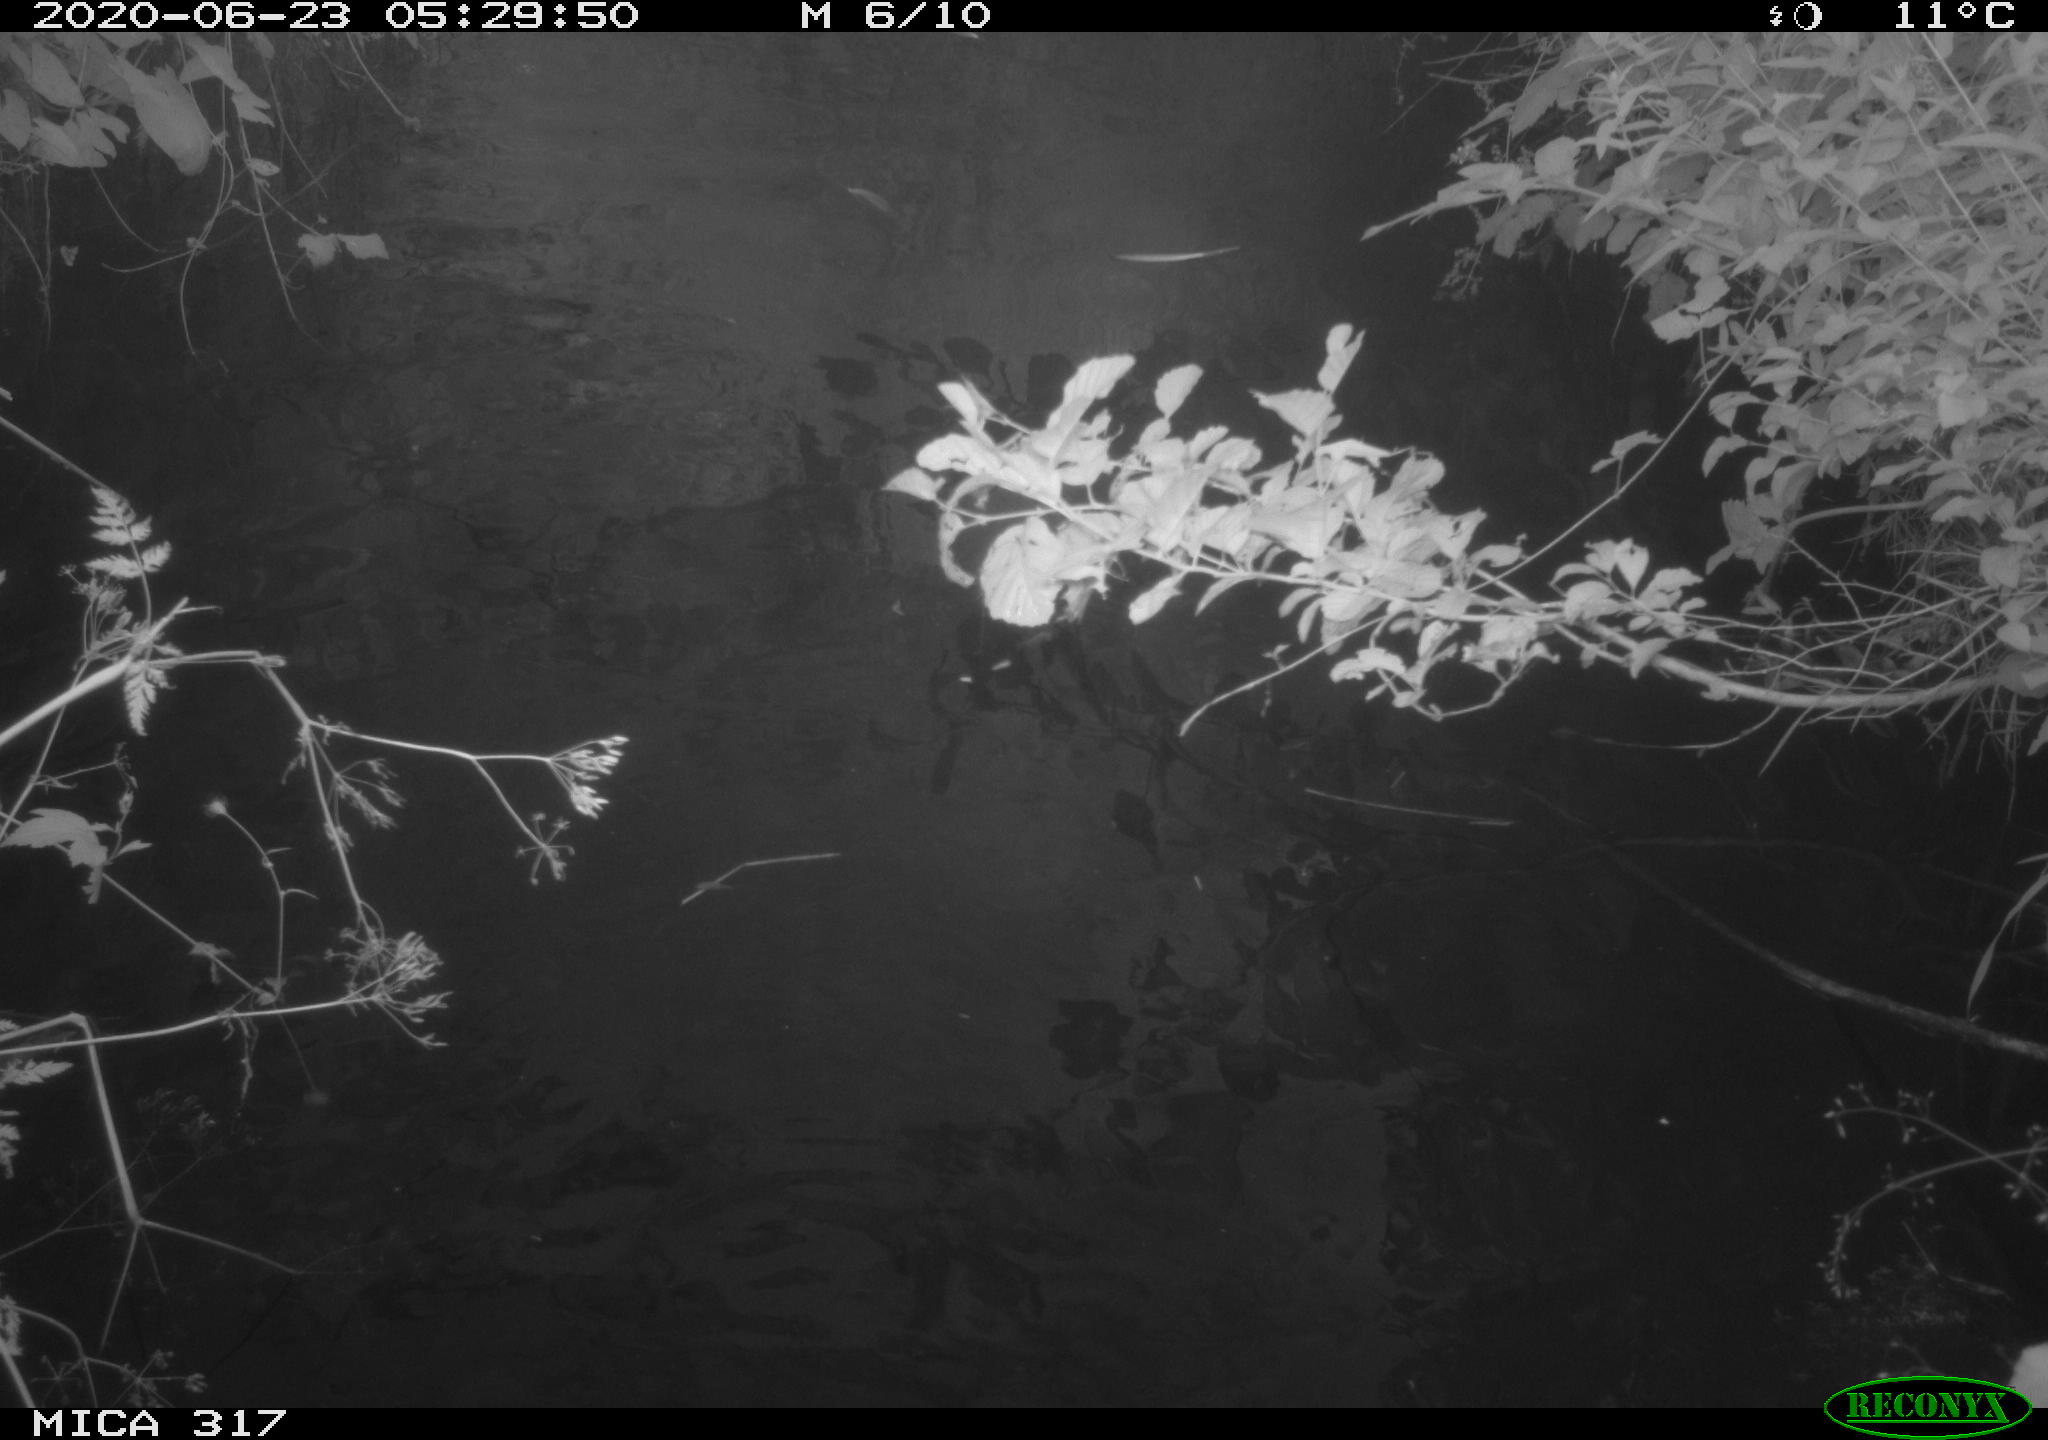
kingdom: Animalia
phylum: Chordata
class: Aves
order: Anseriformes
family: Anatidae
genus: Anas
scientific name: Anas platyrhynchos
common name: Mallard
